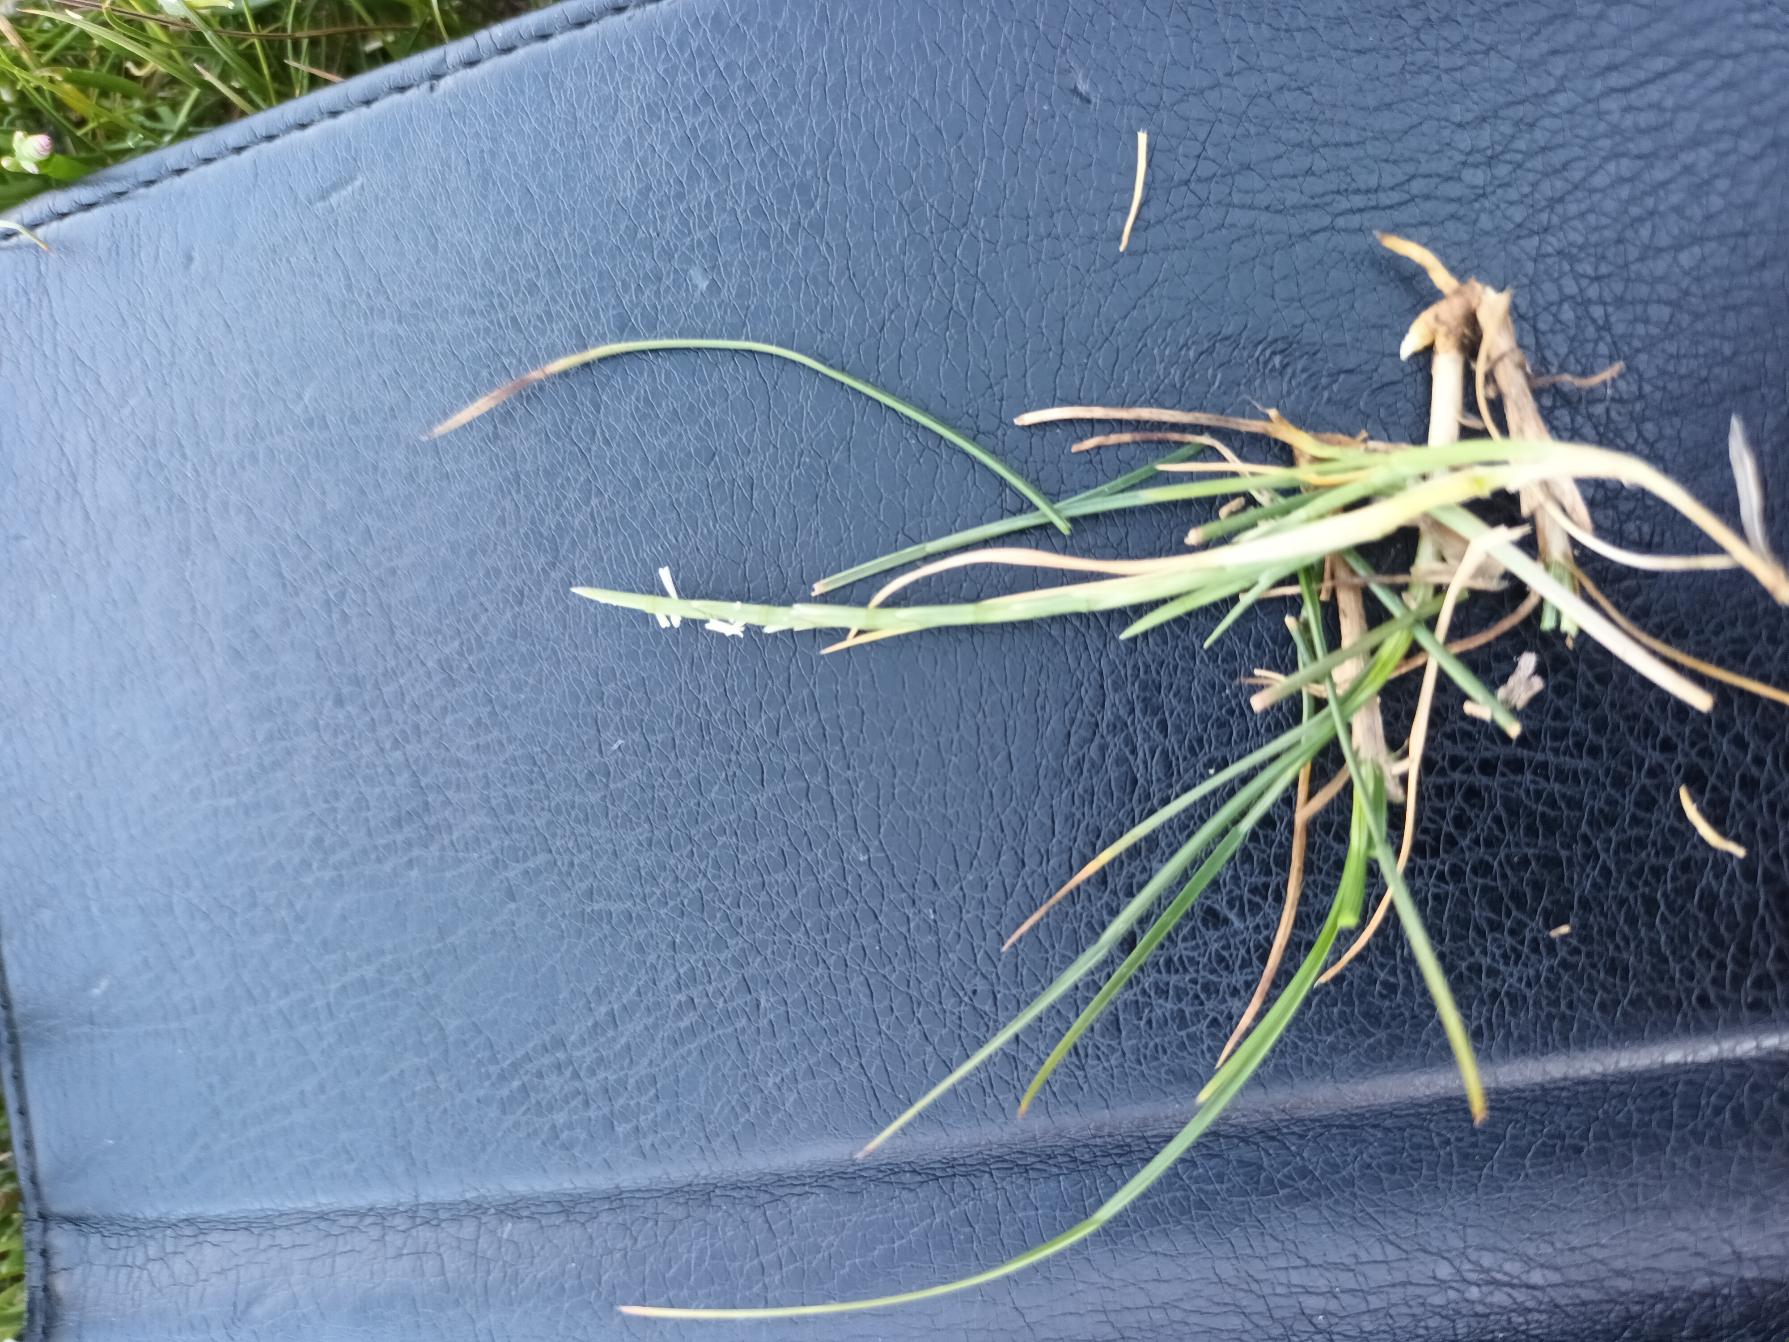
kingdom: Plantae
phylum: Tracheophyta
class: Liliopsida
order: Poales
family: Poaceae
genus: Parapholis
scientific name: Parapholis strigosa
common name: Spidshale
